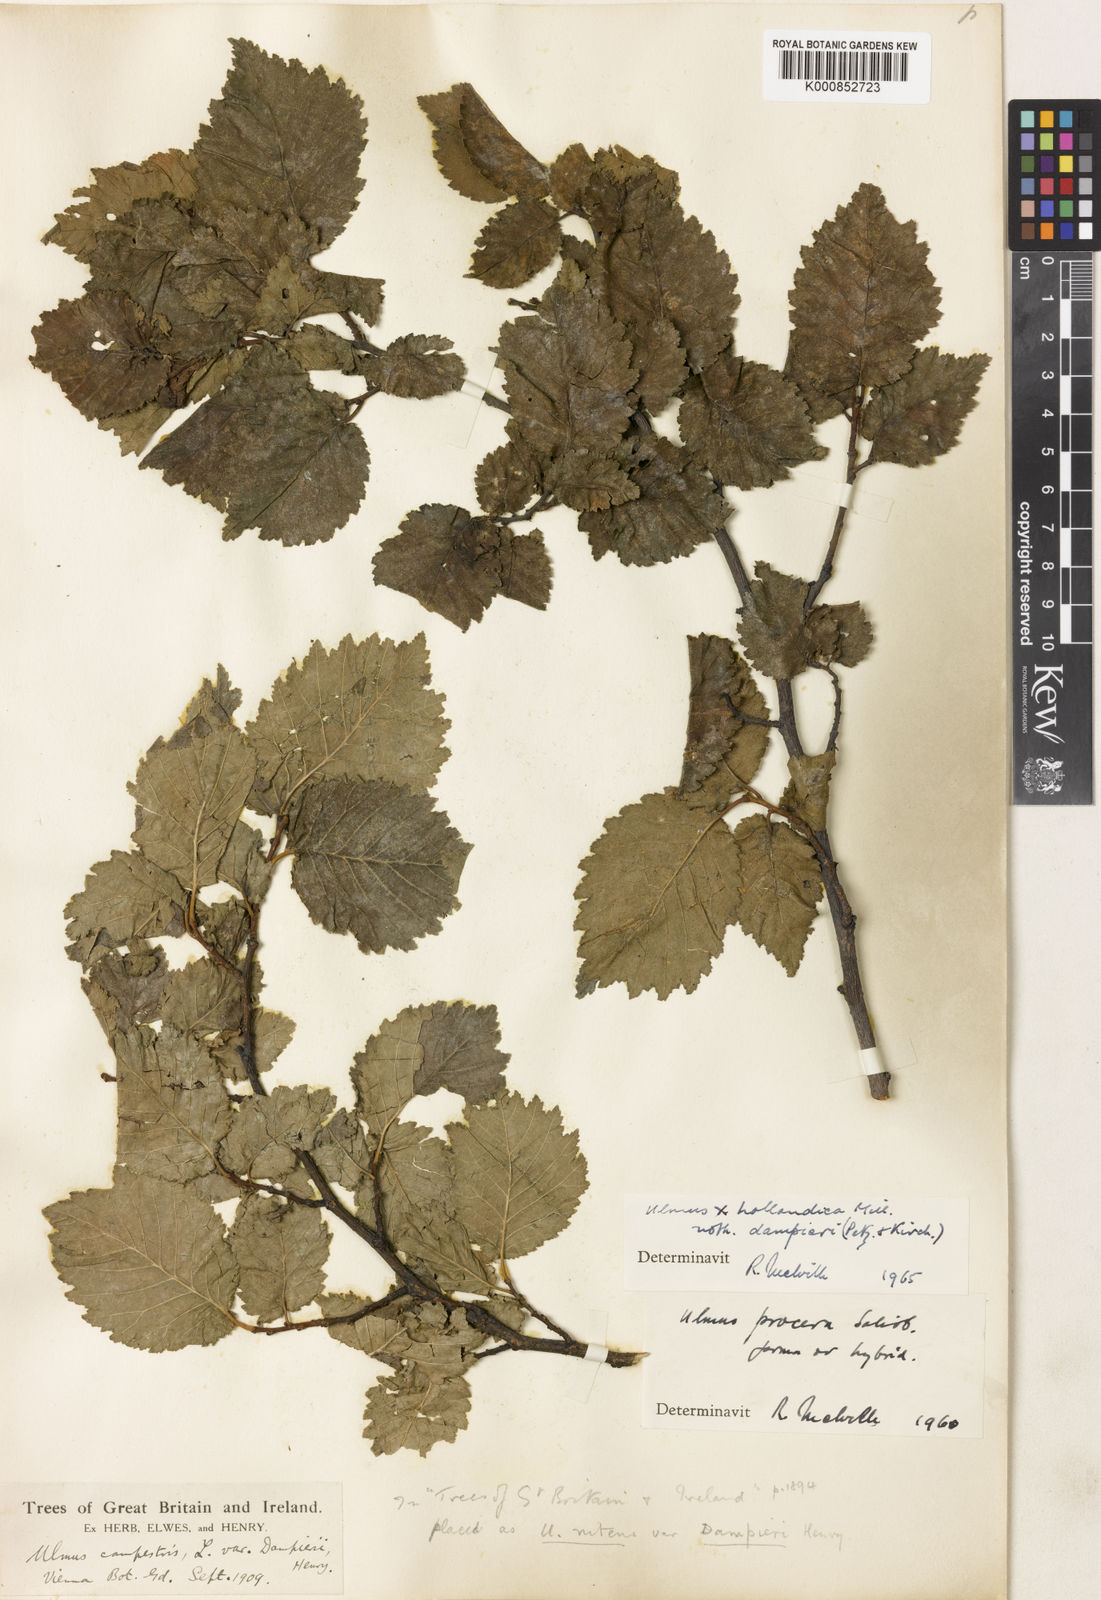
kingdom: Plantae
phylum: Tracheophyta
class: Magnoliopsida
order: Rosales
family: Ulmaceae
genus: Ulmus
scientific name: Ulmus hollandica
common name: Dutch elm
